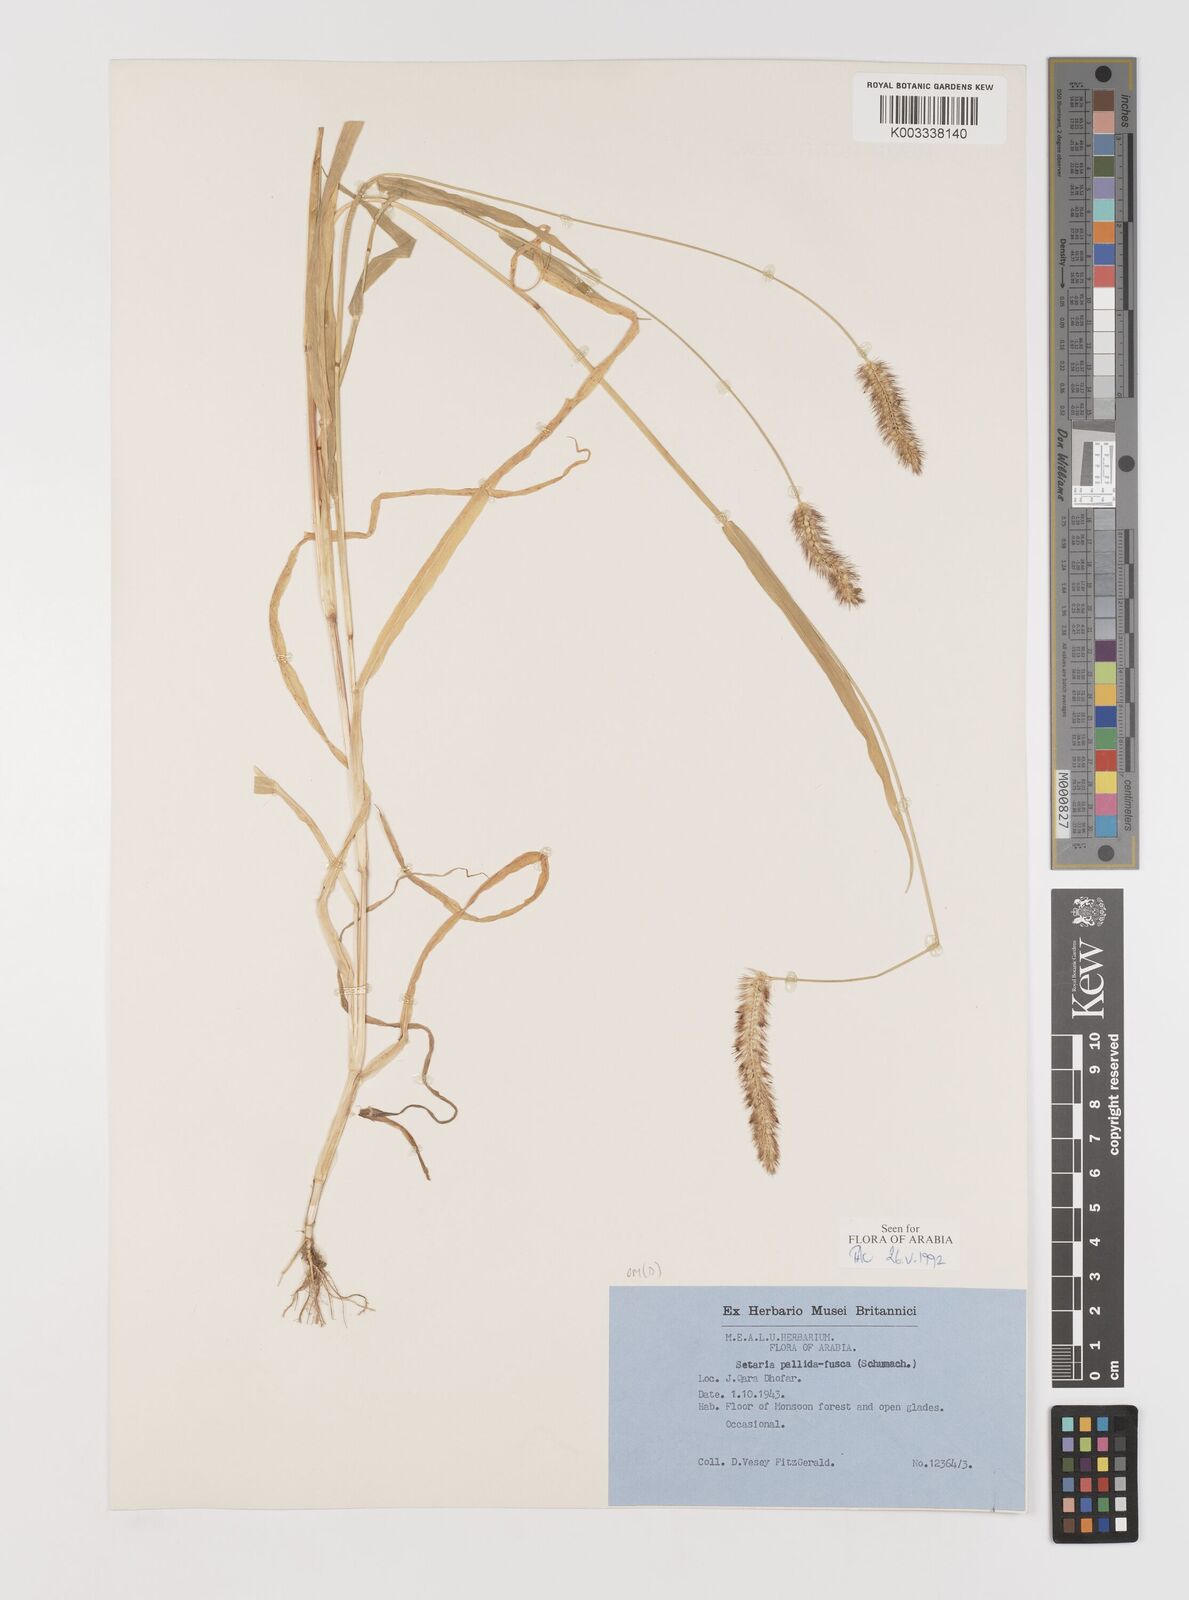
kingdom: Plantae
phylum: Tracheophyta
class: Liliopsida
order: Poales
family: Poaceae
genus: Setaria
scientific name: Setaria pumila
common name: Yellow bristle-grass
